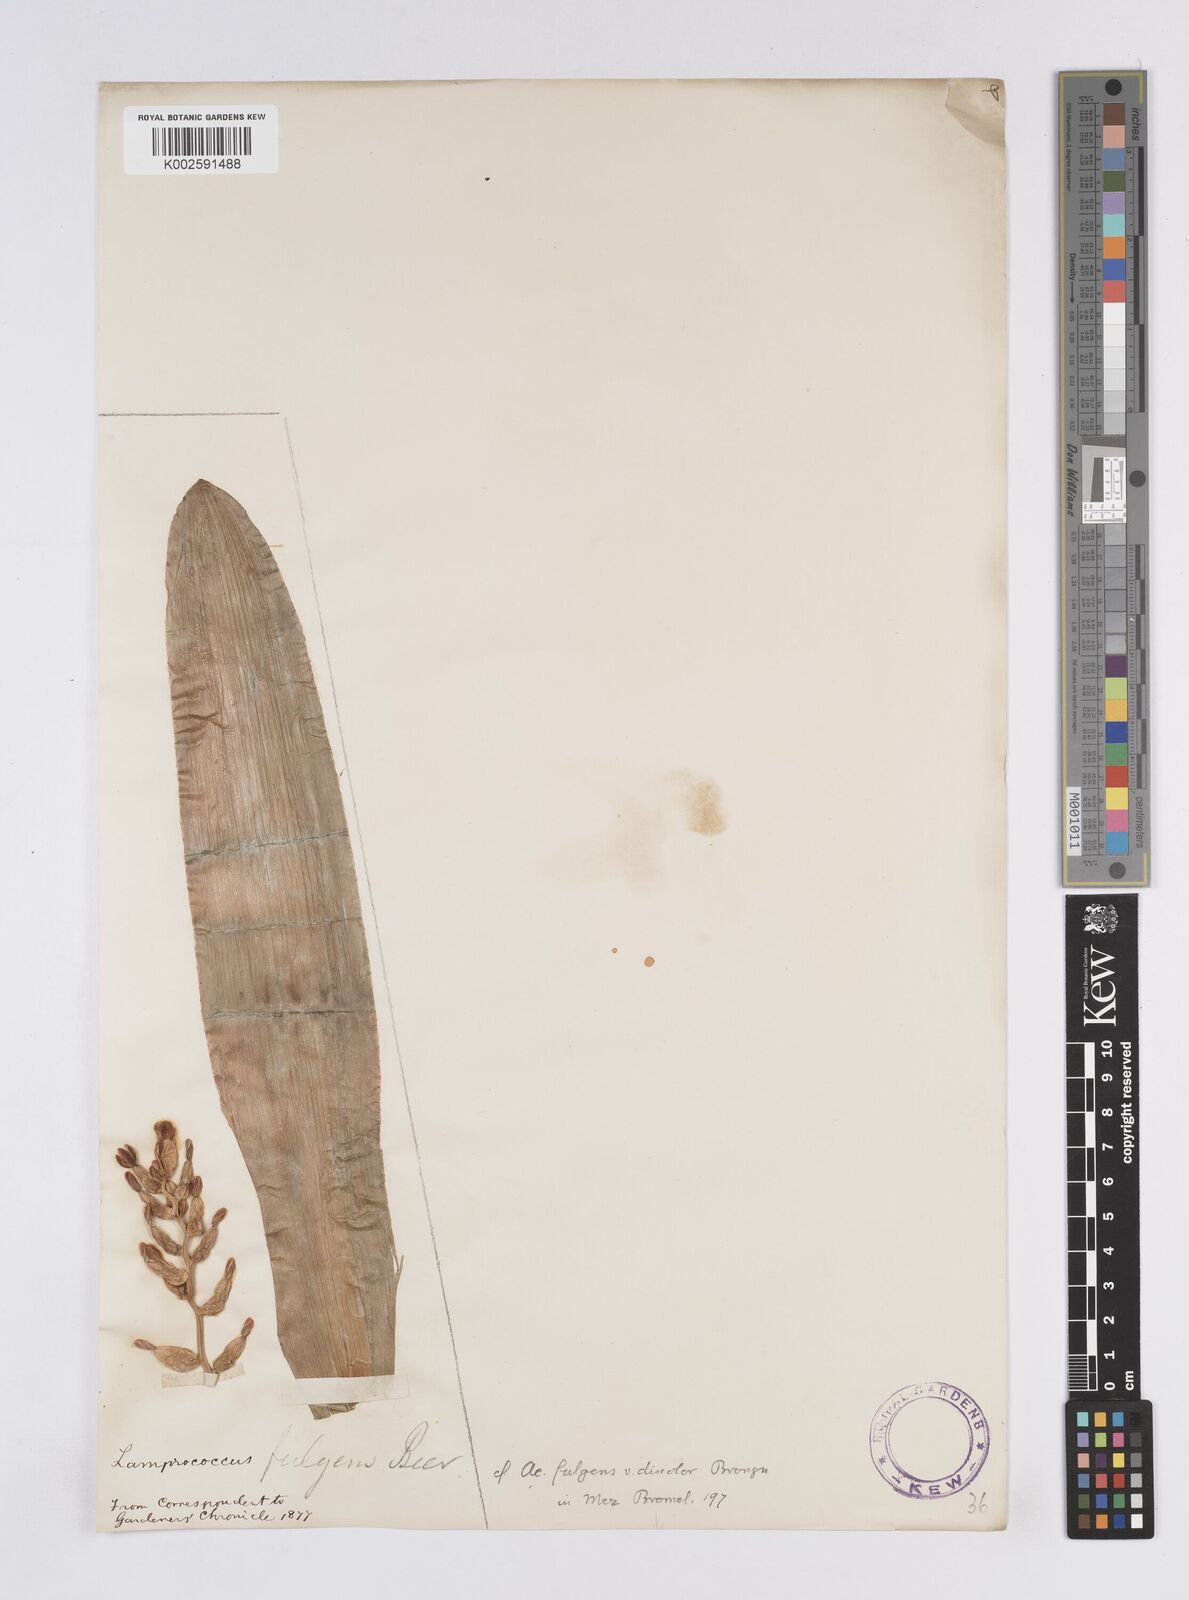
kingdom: Plantae
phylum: Tracheophyta
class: Liliopsida
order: Poales
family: Bromeliaceae
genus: Aechmea
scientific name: Aechmea fulgens
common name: Coralberry
